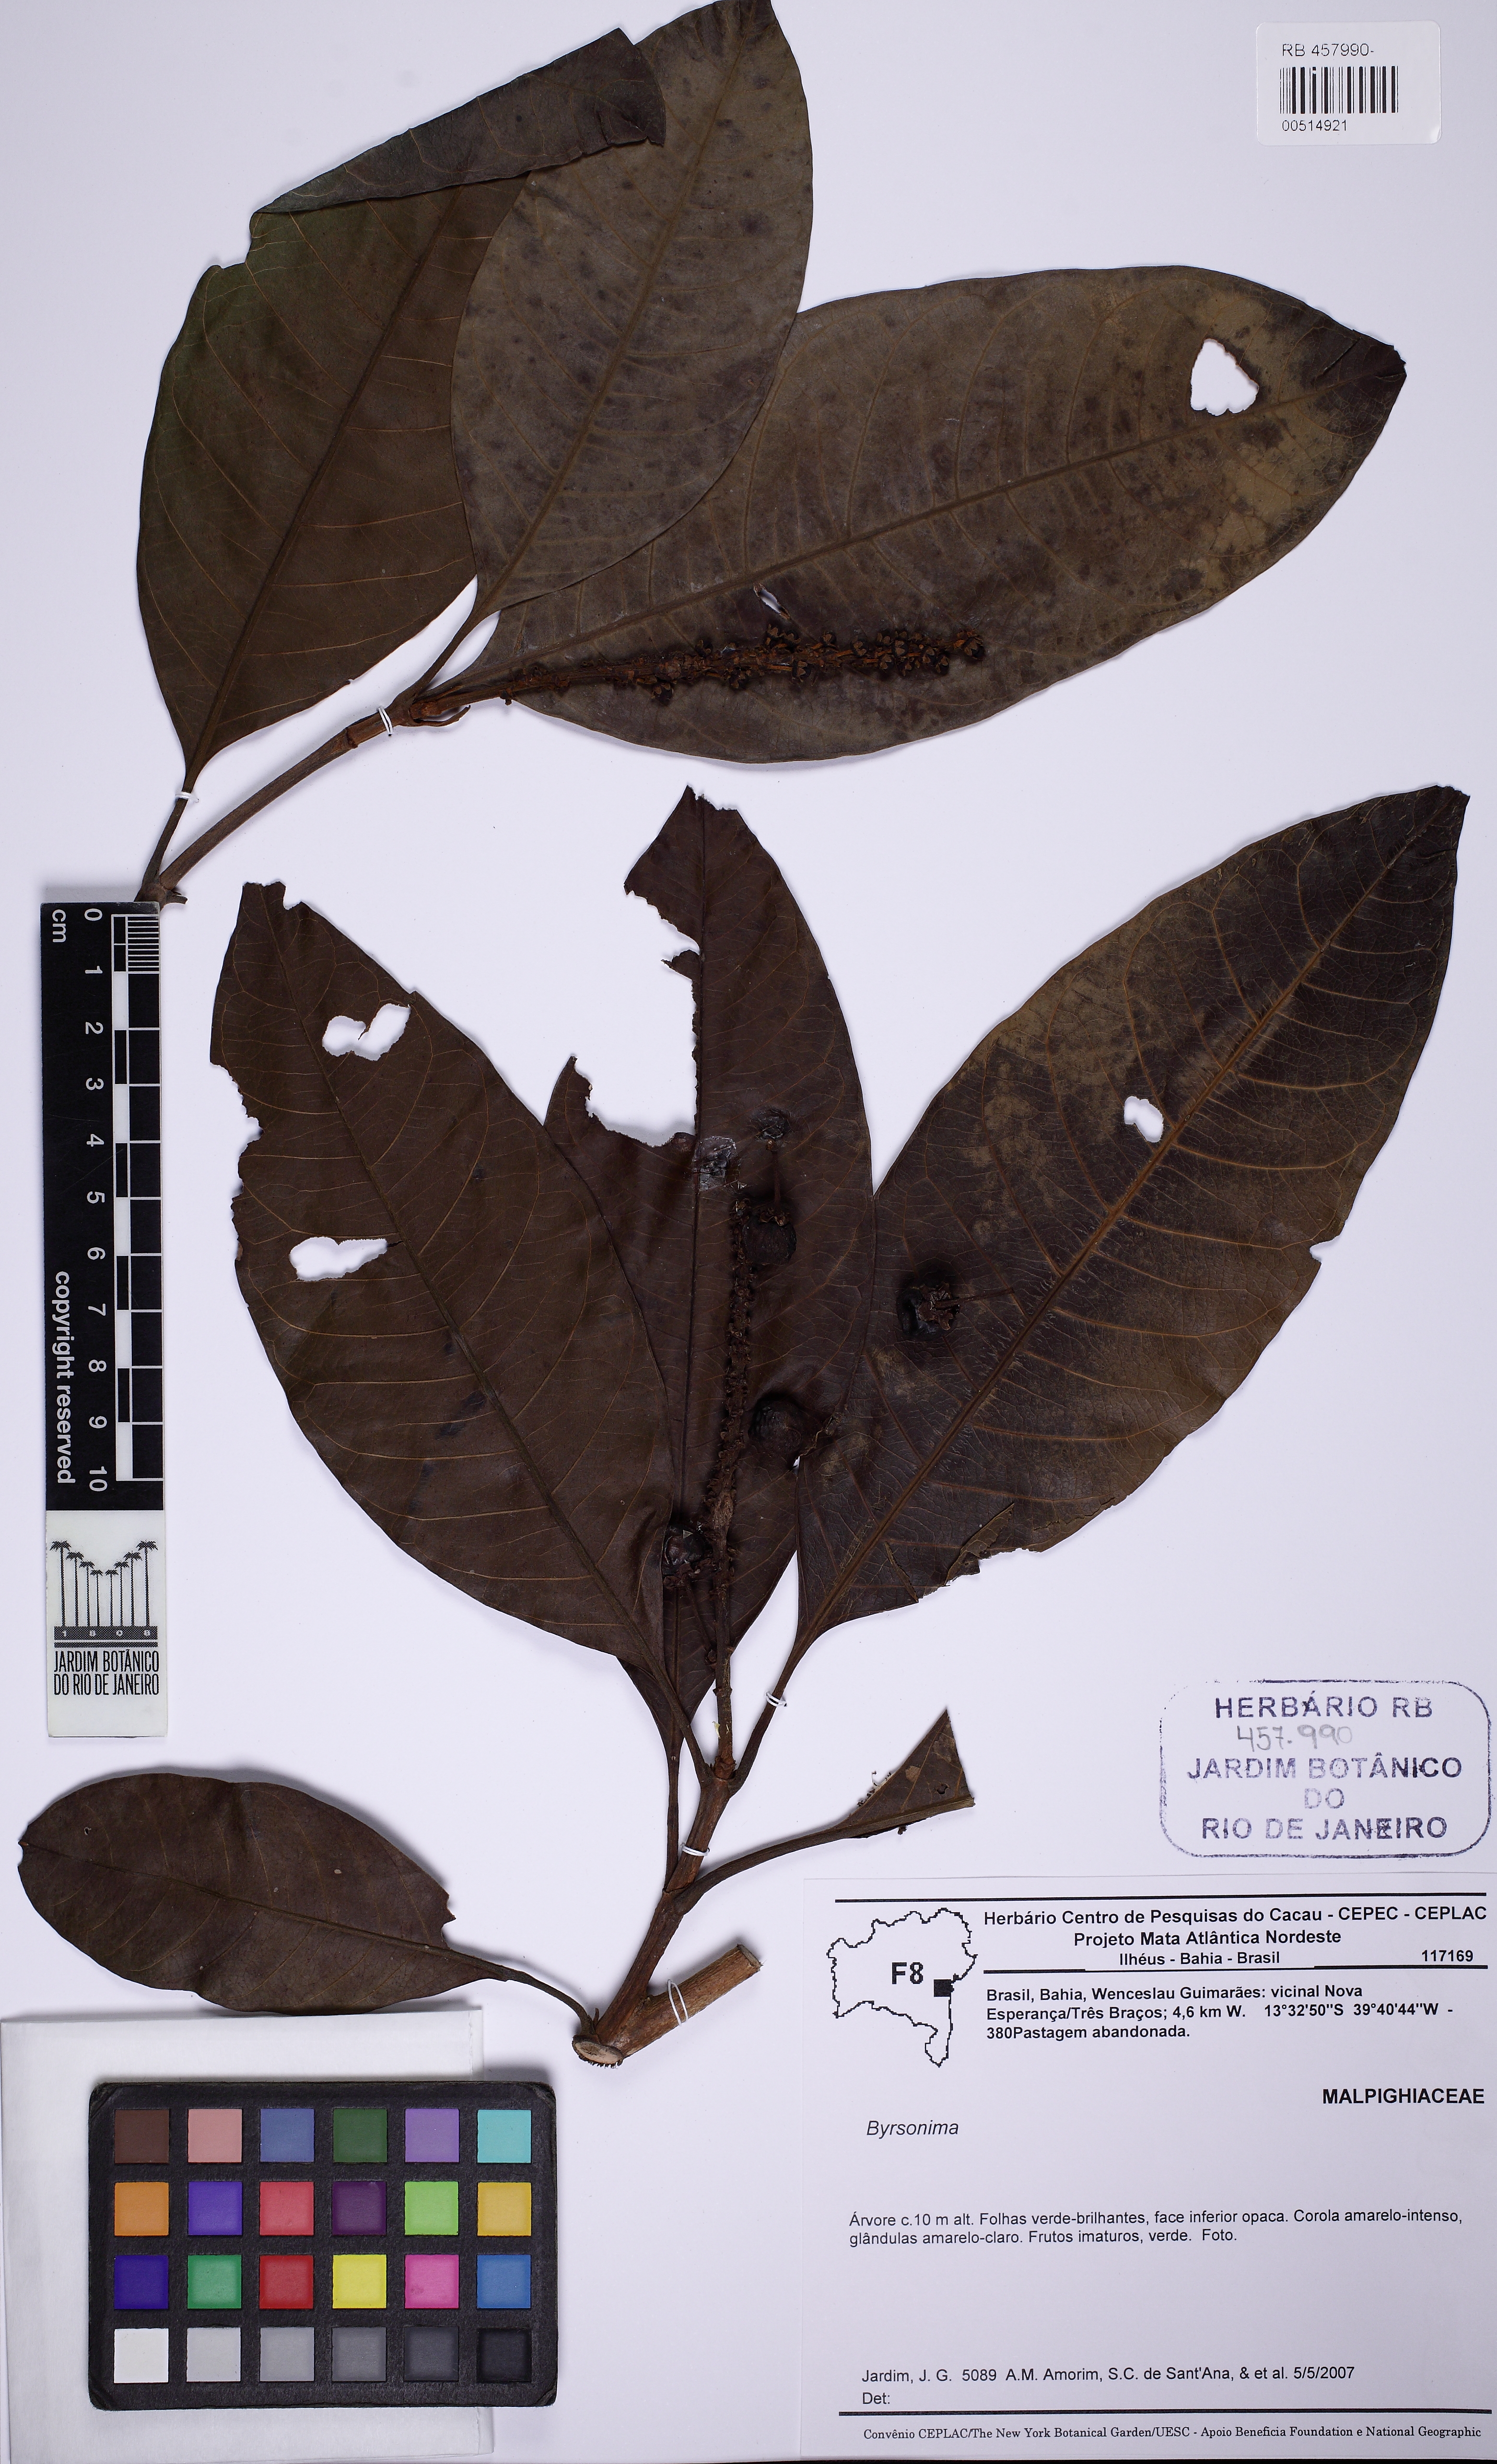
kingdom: Plantae
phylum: Tracheophyta
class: Magnoliopsida
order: Malpighiales
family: Malpighiaceae
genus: Byrsonima
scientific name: Byrsonima crispa
